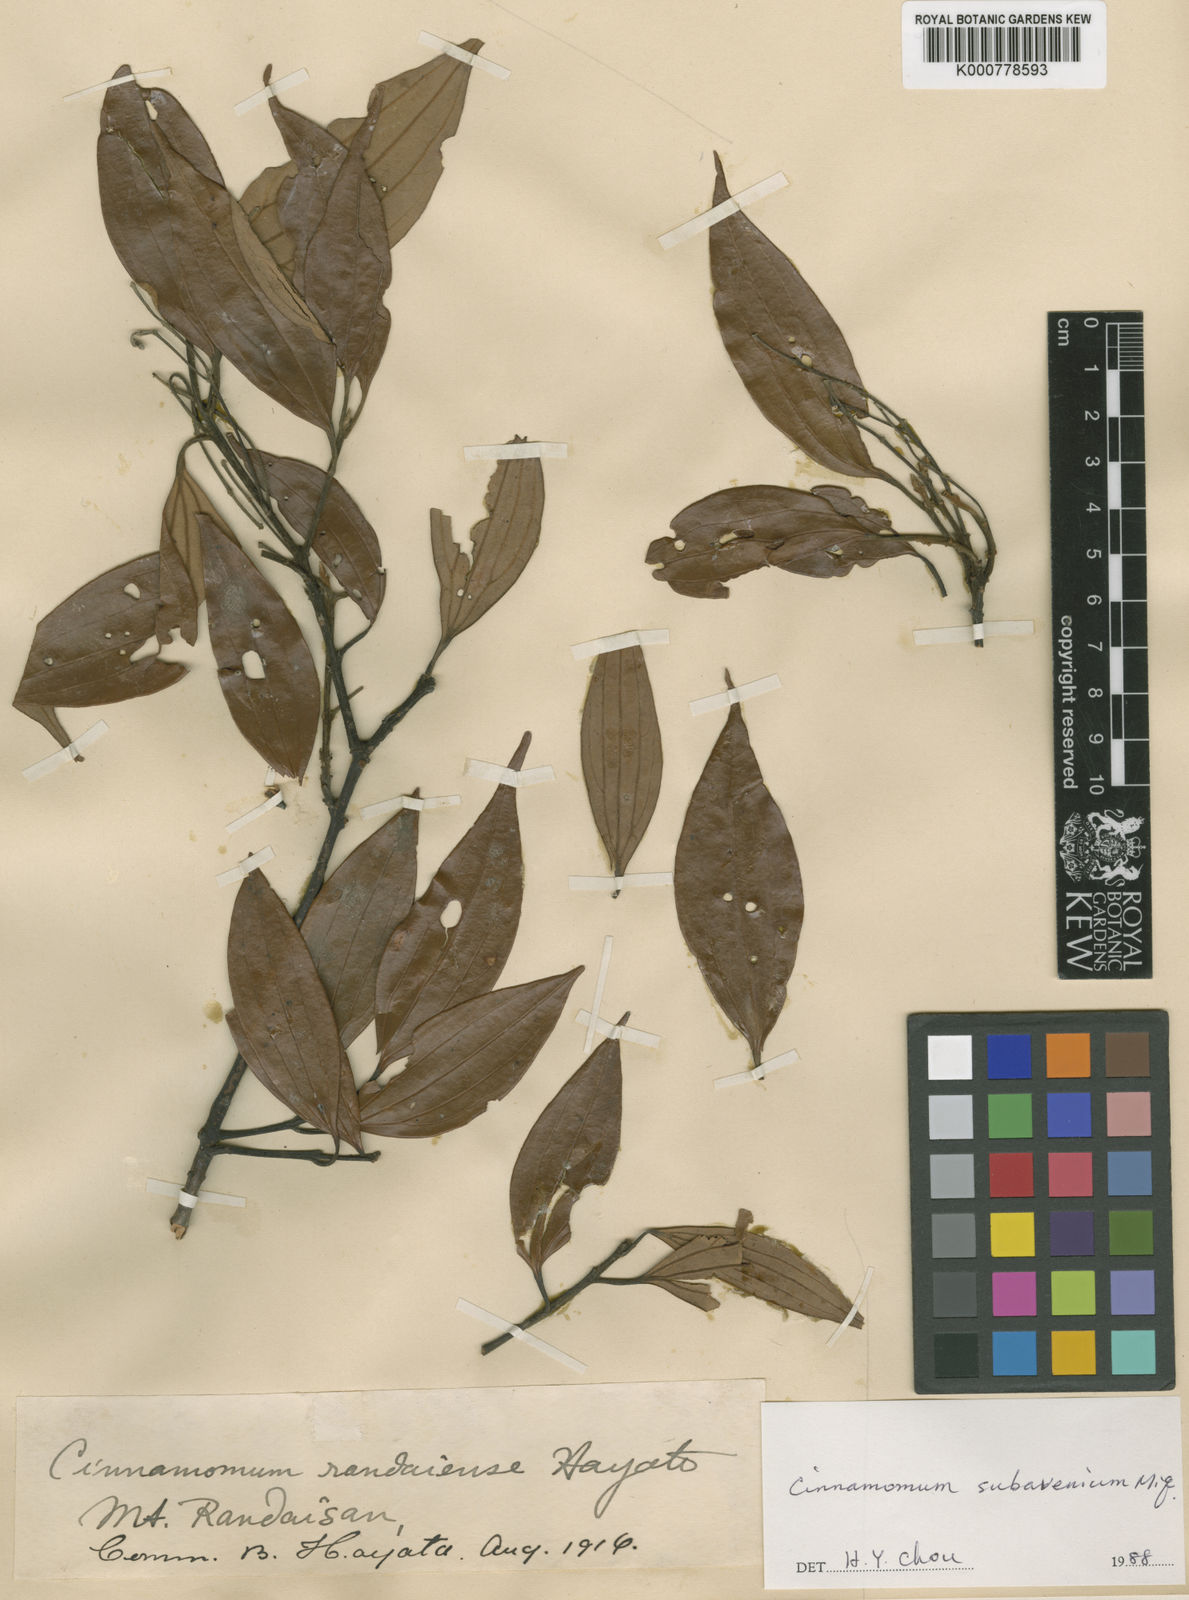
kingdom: Plantae
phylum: Tracheophyta
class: Magnoliopsida
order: Laurales
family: Lauraceae
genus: Cinnamomum
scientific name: Cinnamomum subavenium
